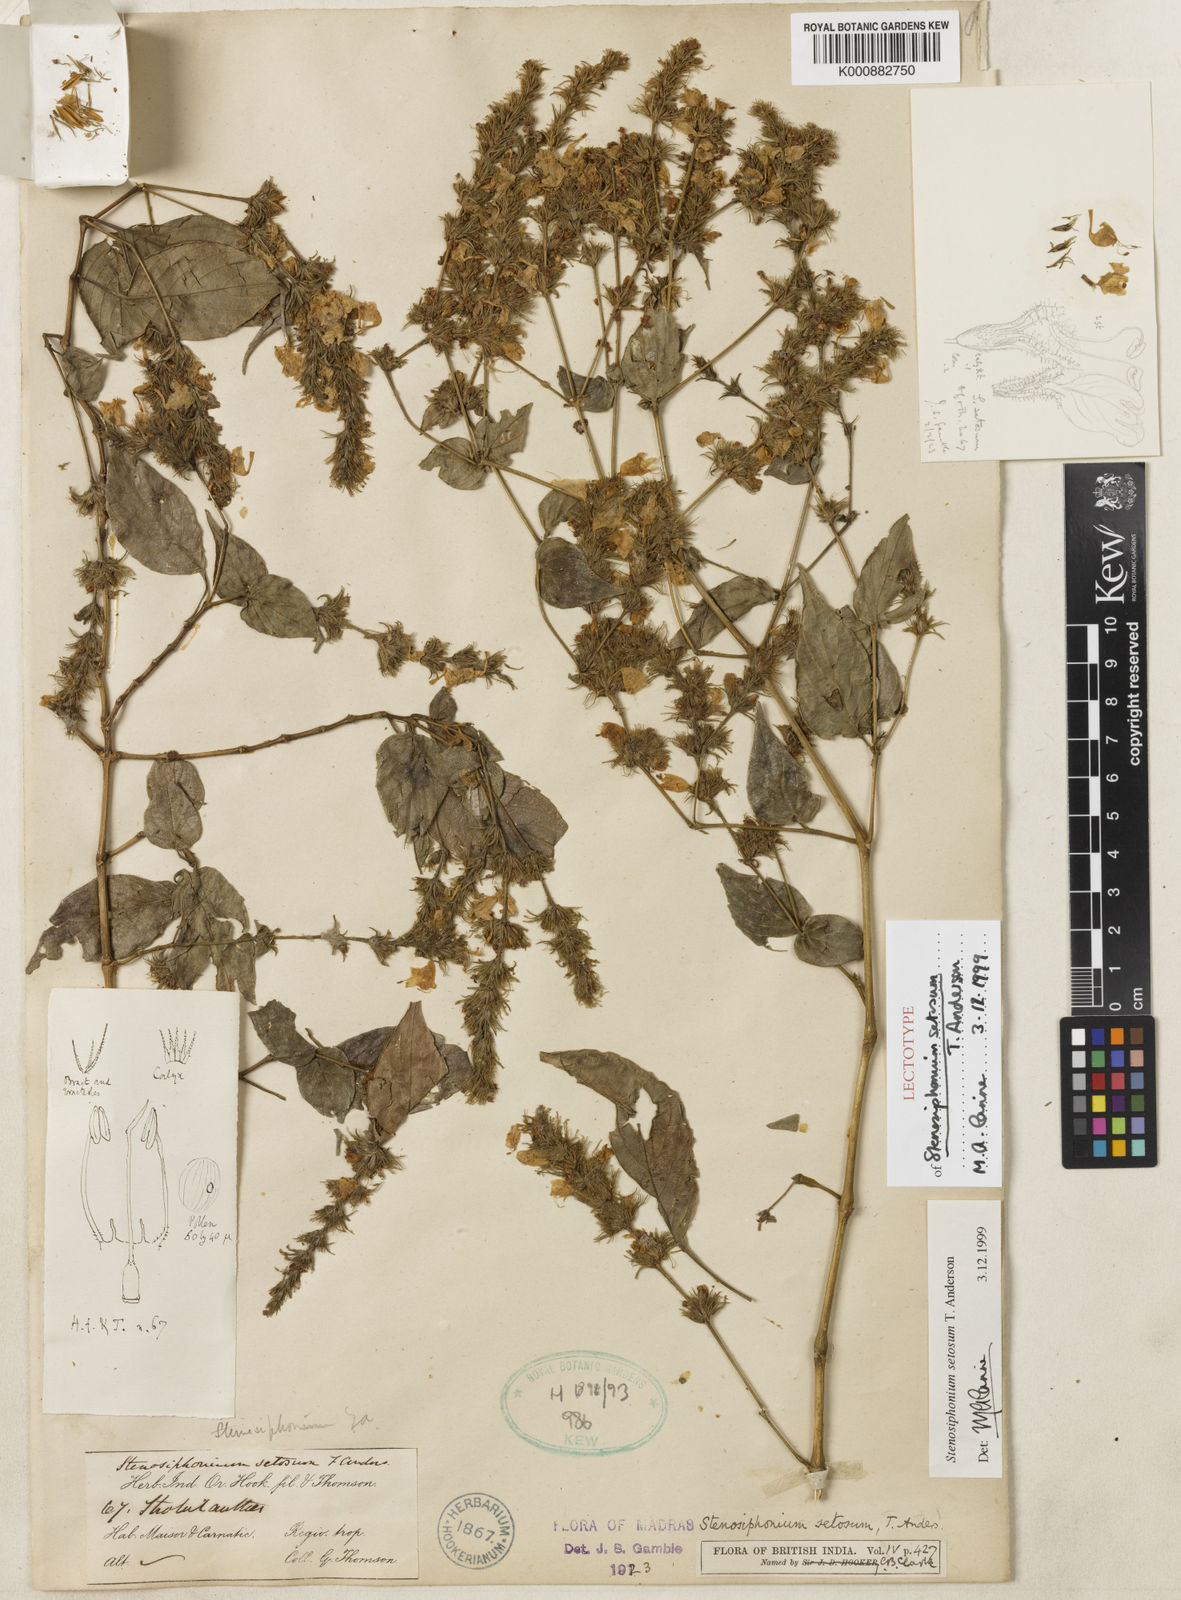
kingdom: Plantae
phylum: Tracheophyta
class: Magnoliopsida
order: Lamiales
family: Acanthaceae
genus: Strobilanthes
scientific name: Strobilanthes carinei
